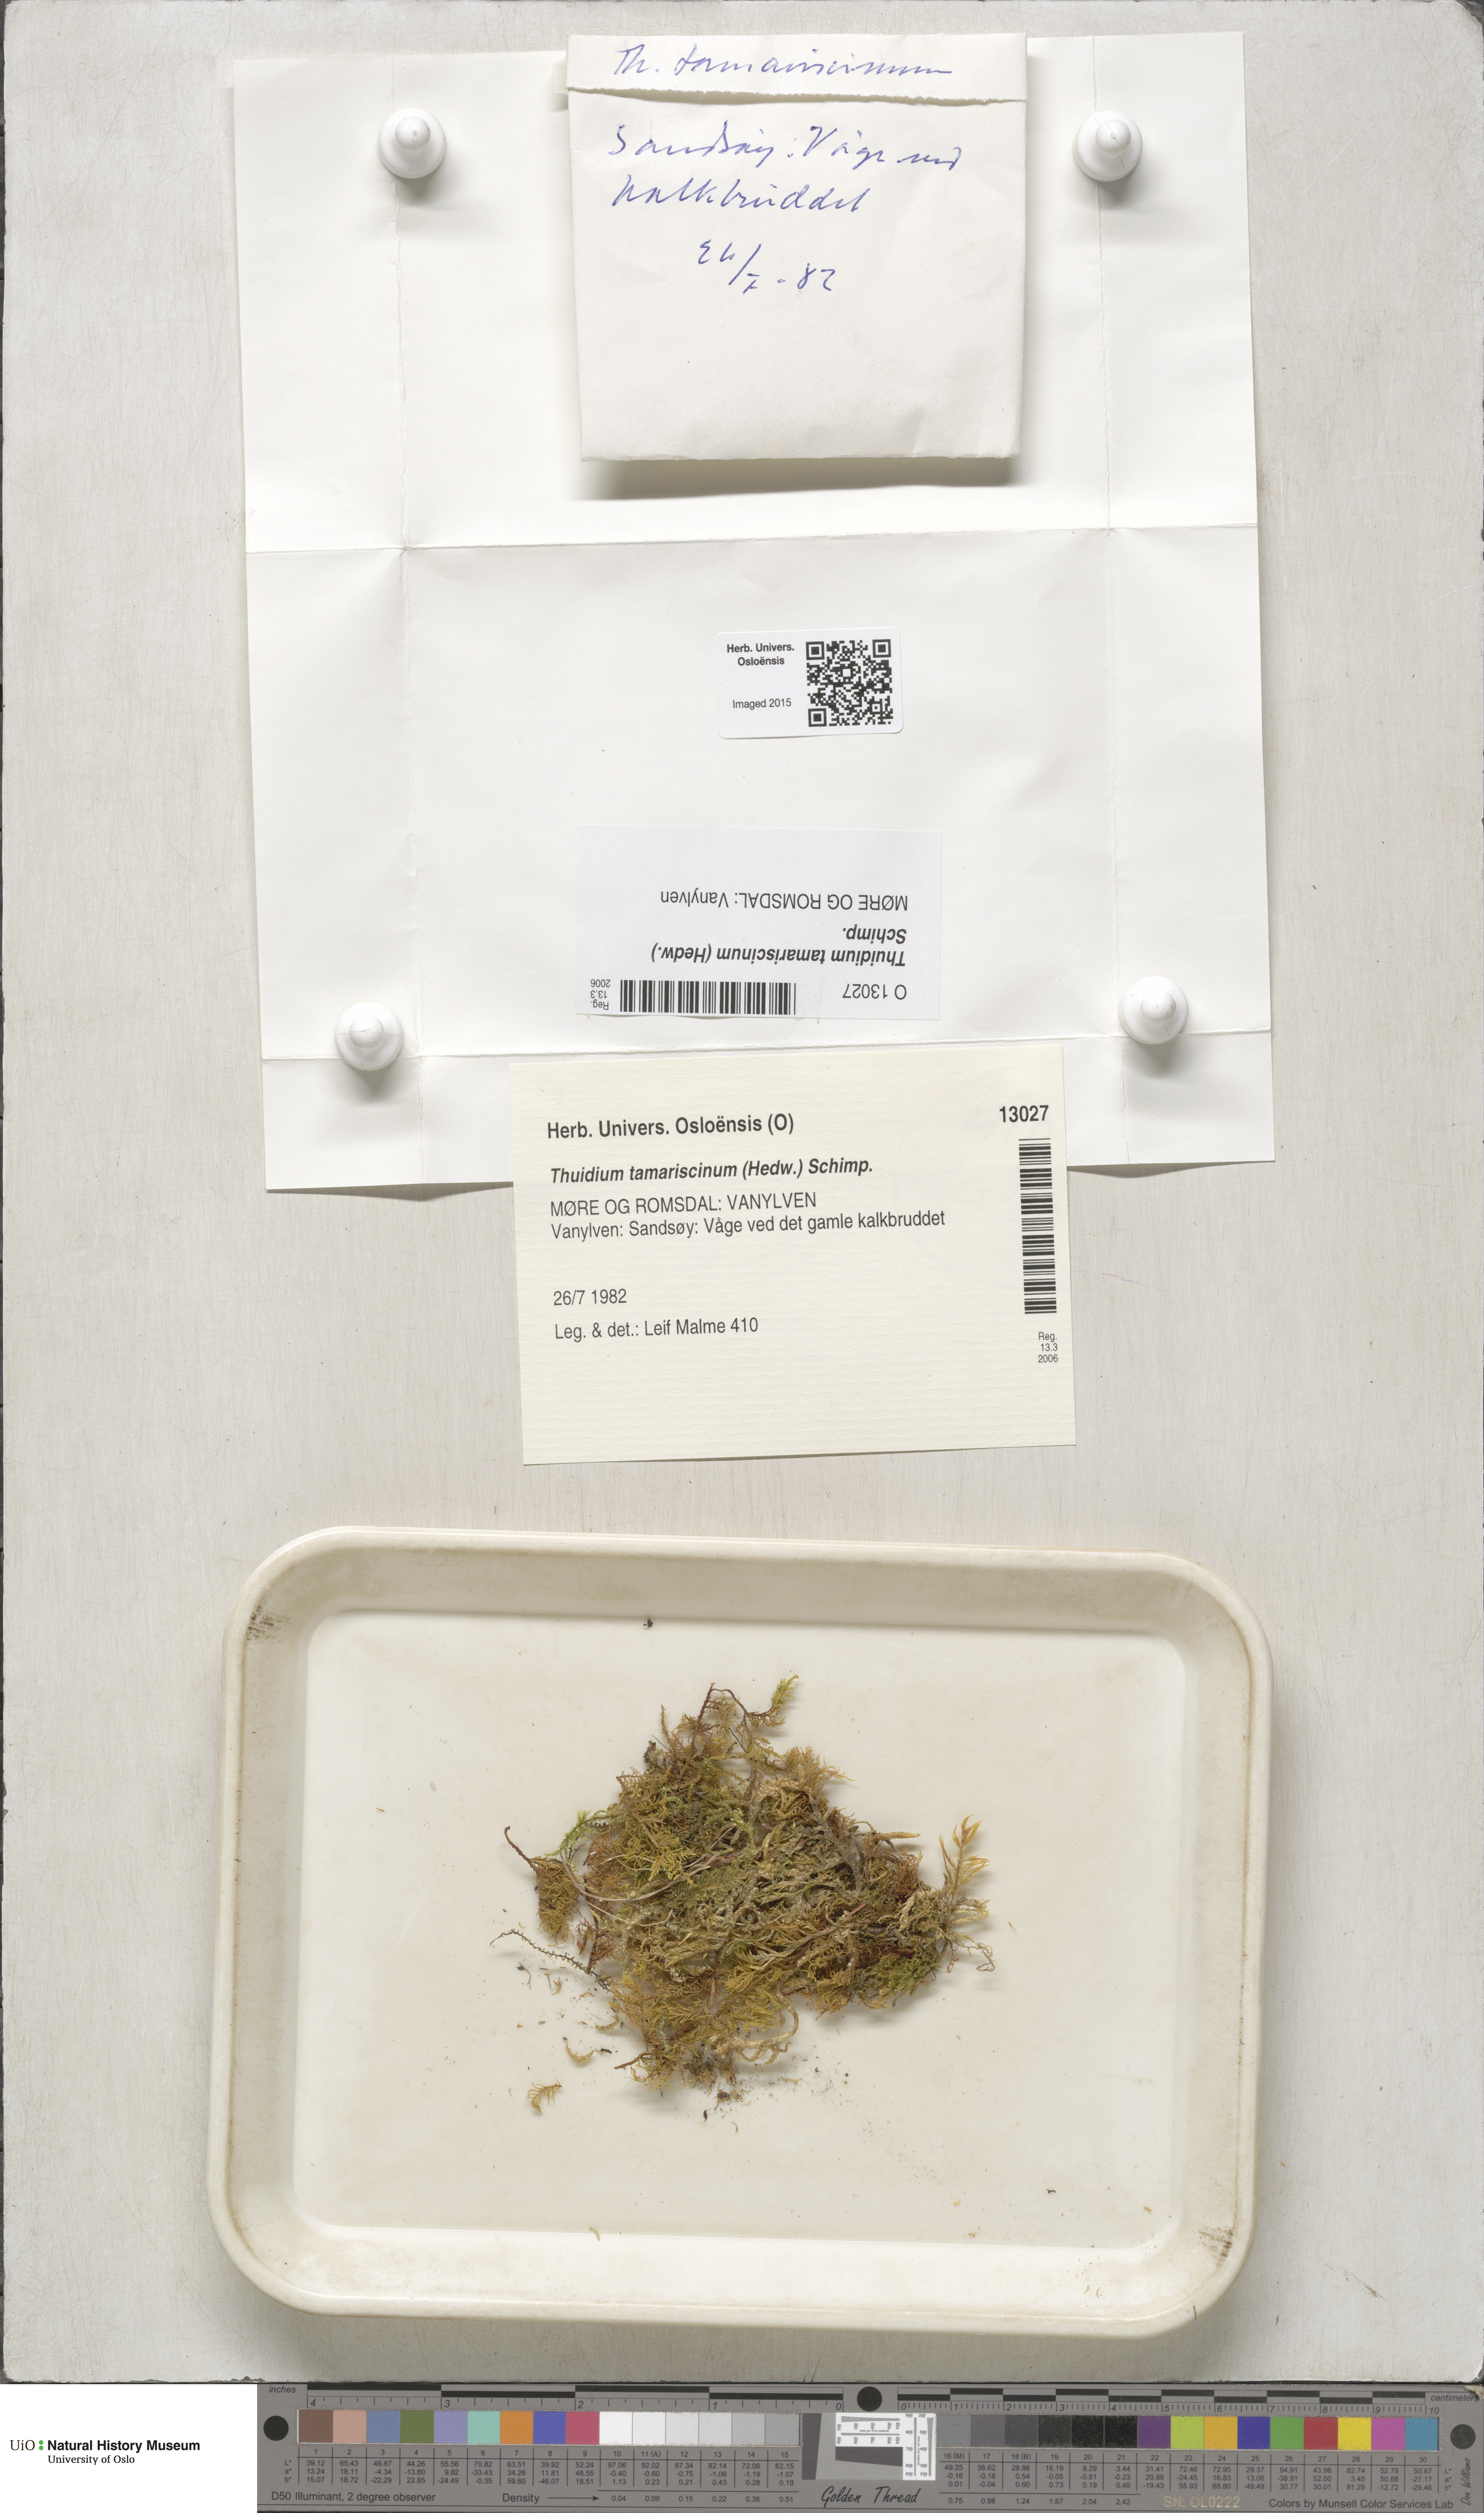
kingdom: Plantae
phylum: Bryophyta
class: Bryopsida
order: Hypnales
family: Thuidiaceae
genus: Thuidium
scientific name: Thuidium tamariscinum
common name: Common tamarisk-moss
